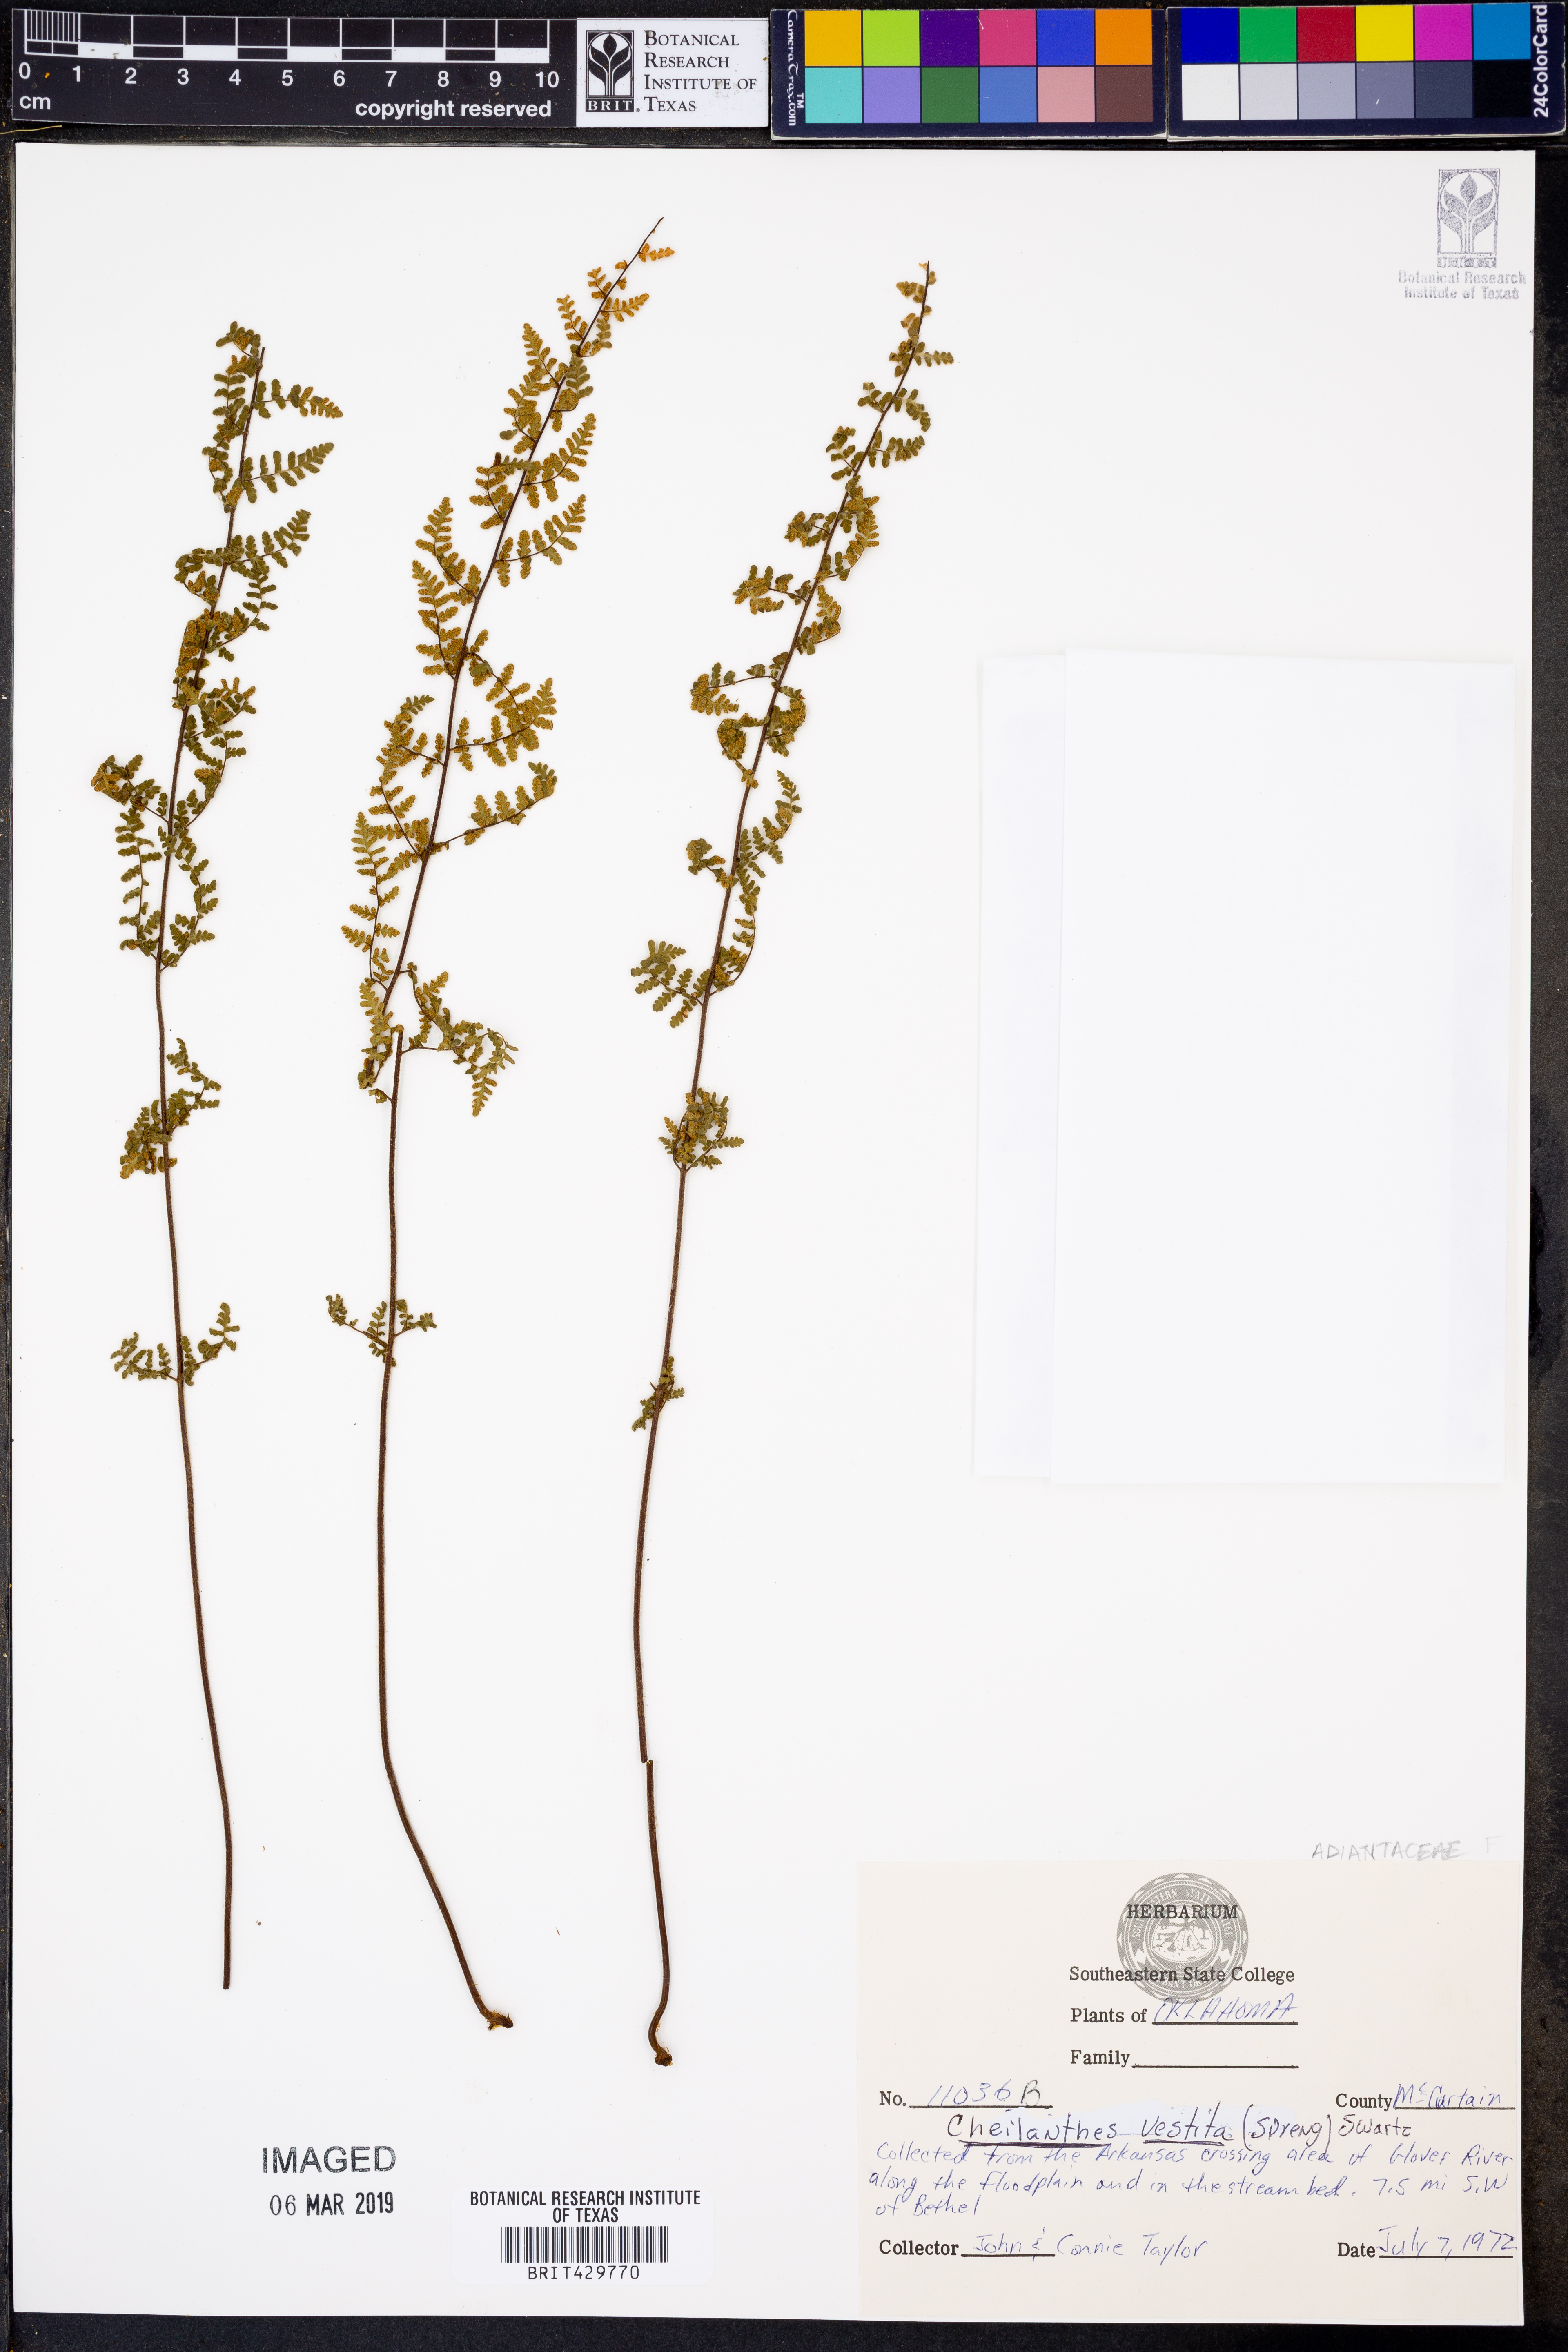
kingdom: Plantae
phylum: Tracheophyta
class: Polypodiopsida
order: Polypodiales
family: Pteridaceae
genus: Myriopteris
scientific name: Myriopteris lanosa
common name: Hairy lip fern
